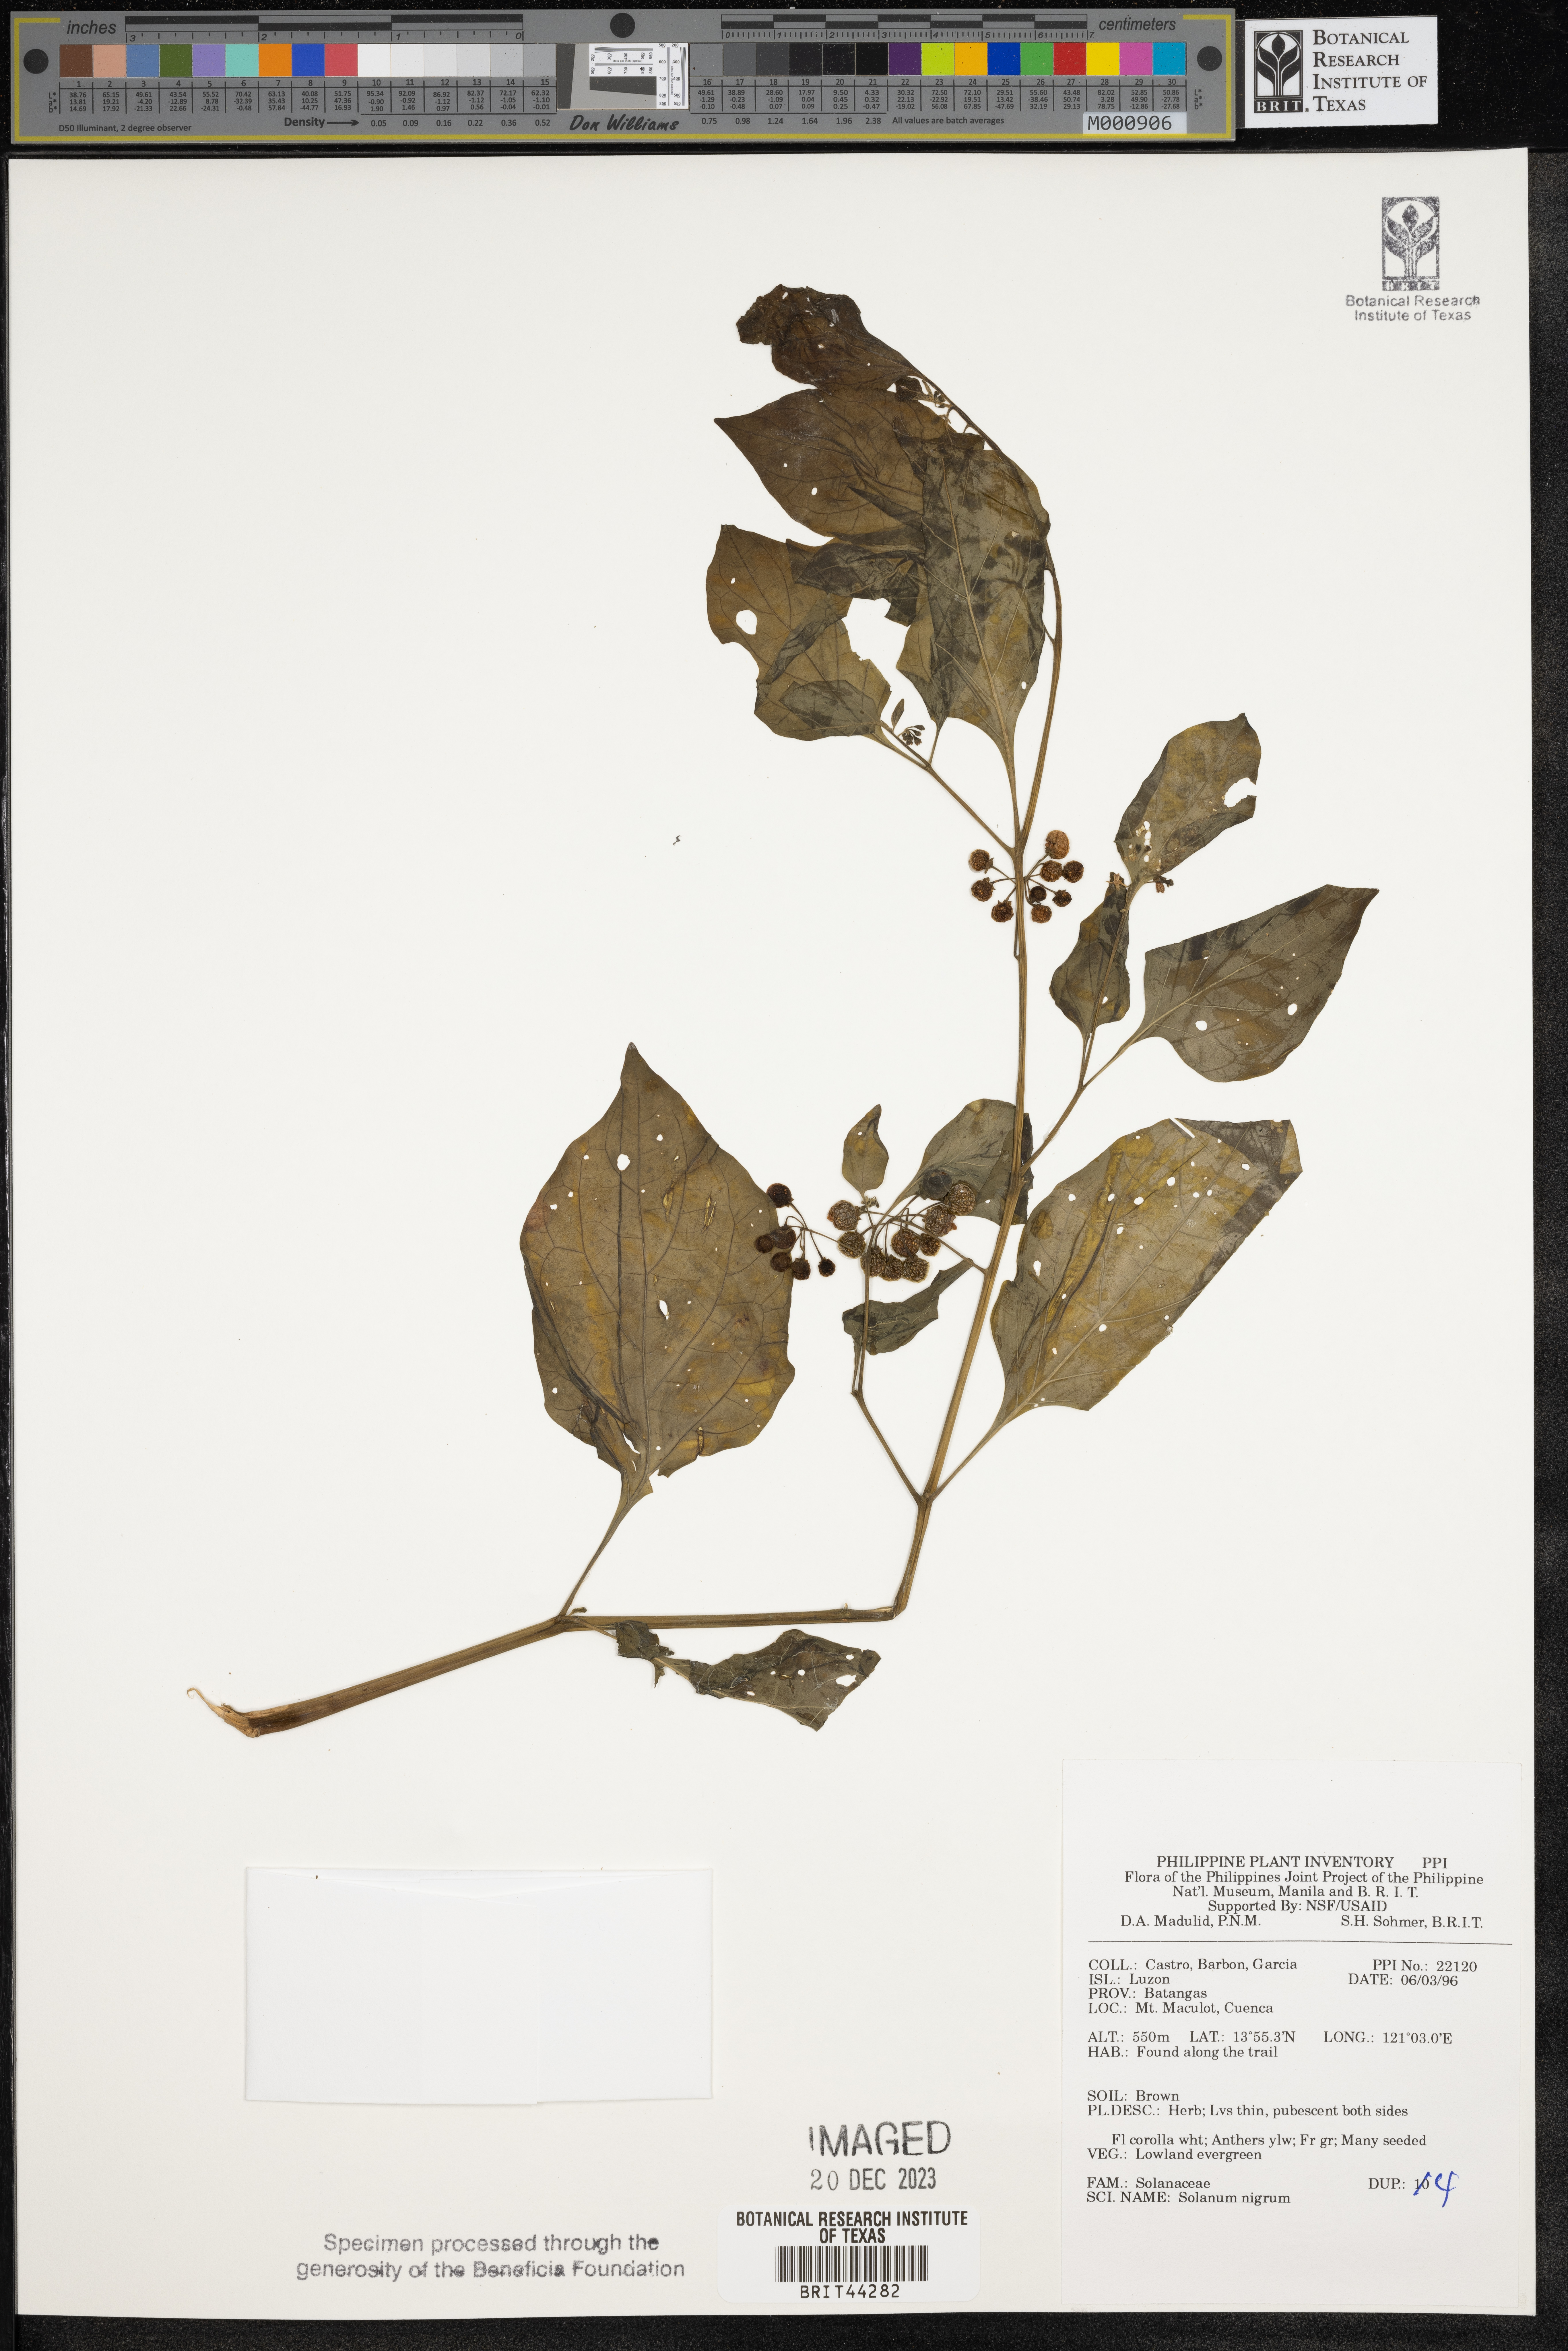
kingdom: Plantae
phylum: Tracheophyta
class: Magnoliopsida
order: Solanales
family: Solanaceae
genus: Solanum
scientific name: Solanum nigrum
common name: Black nightshade
